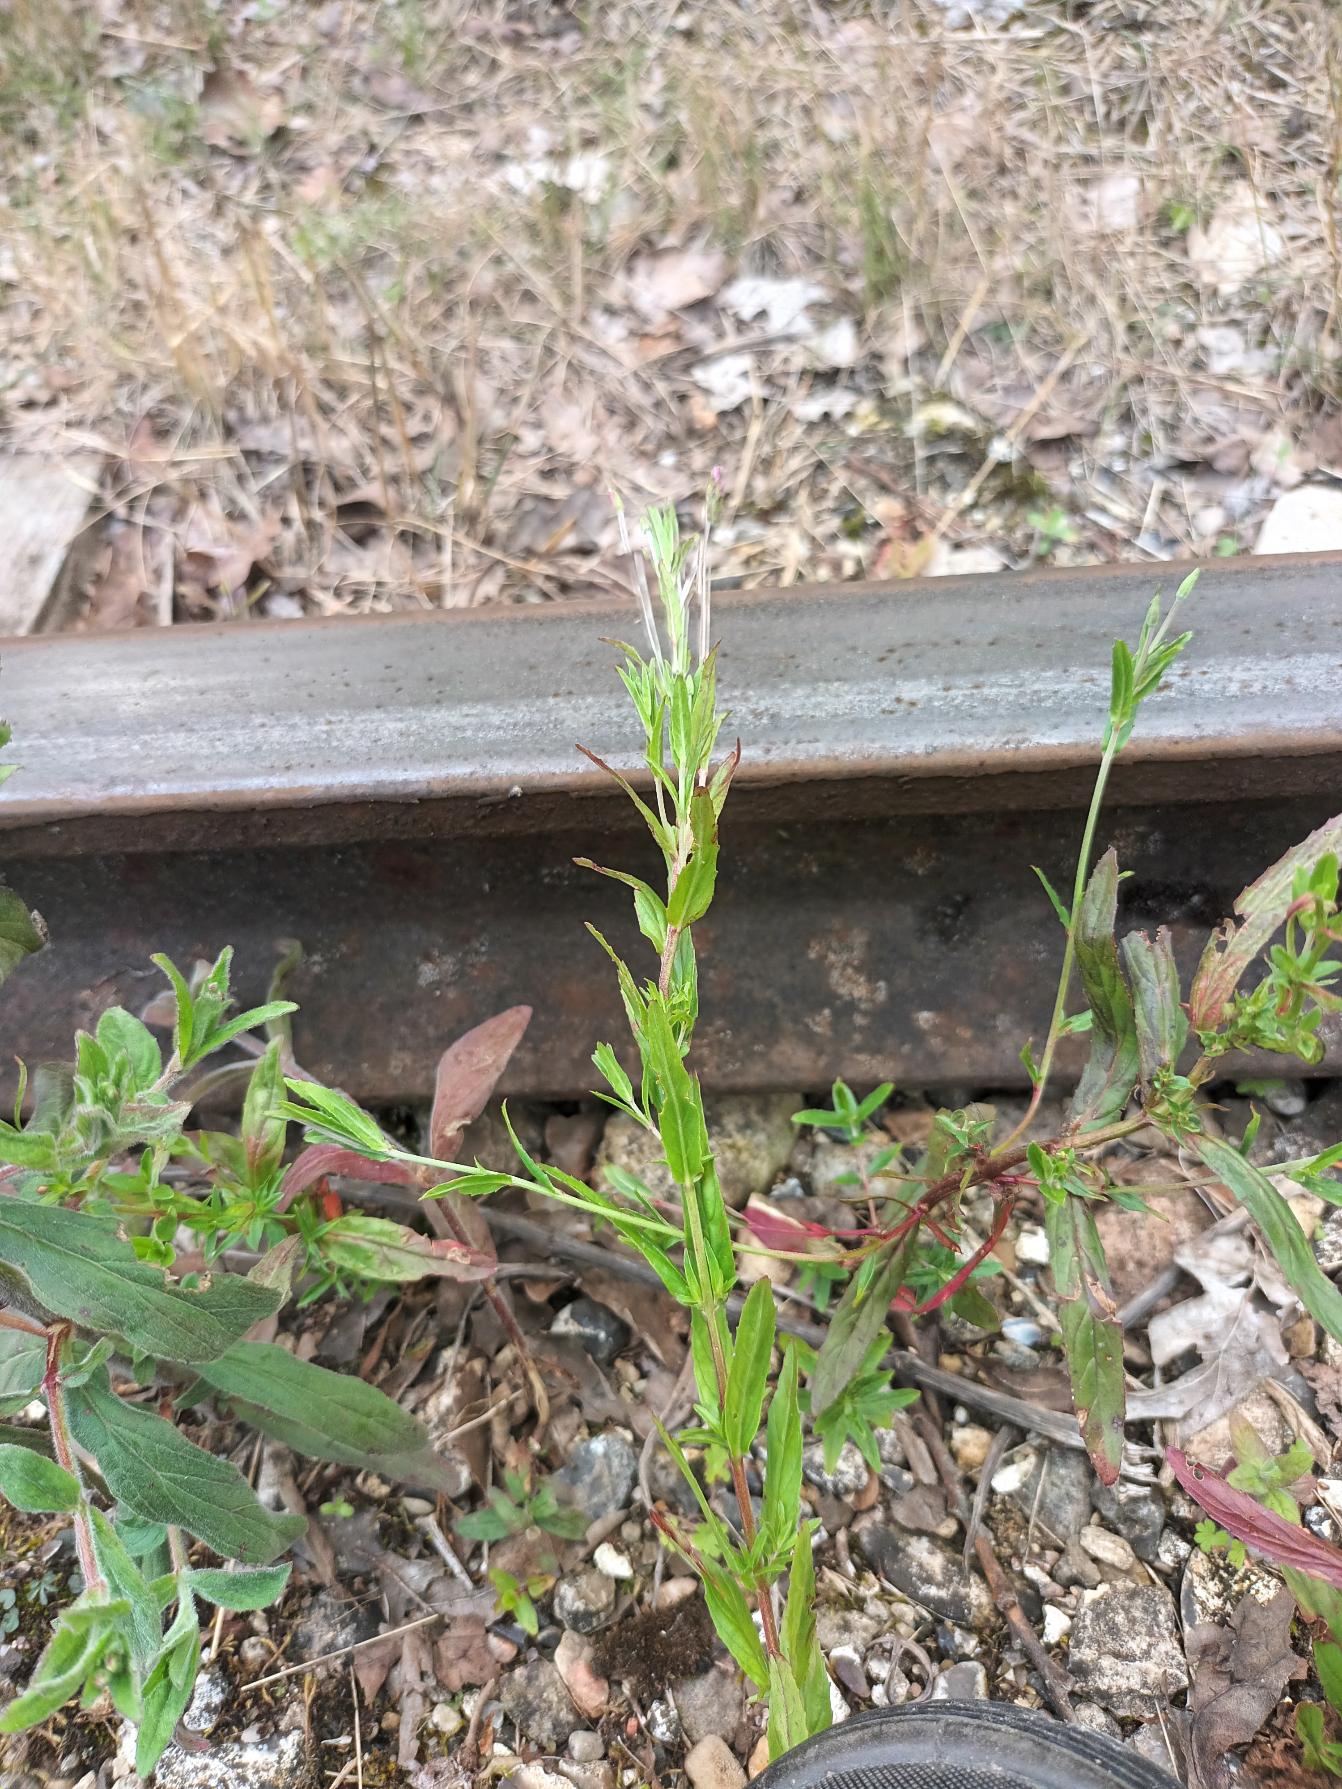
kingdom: Plantae
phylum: Tracheophyta
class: Magnoliopsida
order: Myrtales
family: Onagraceae
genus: Epilobium
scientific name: Epilobium tetragonum
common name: Kantet dueurt
